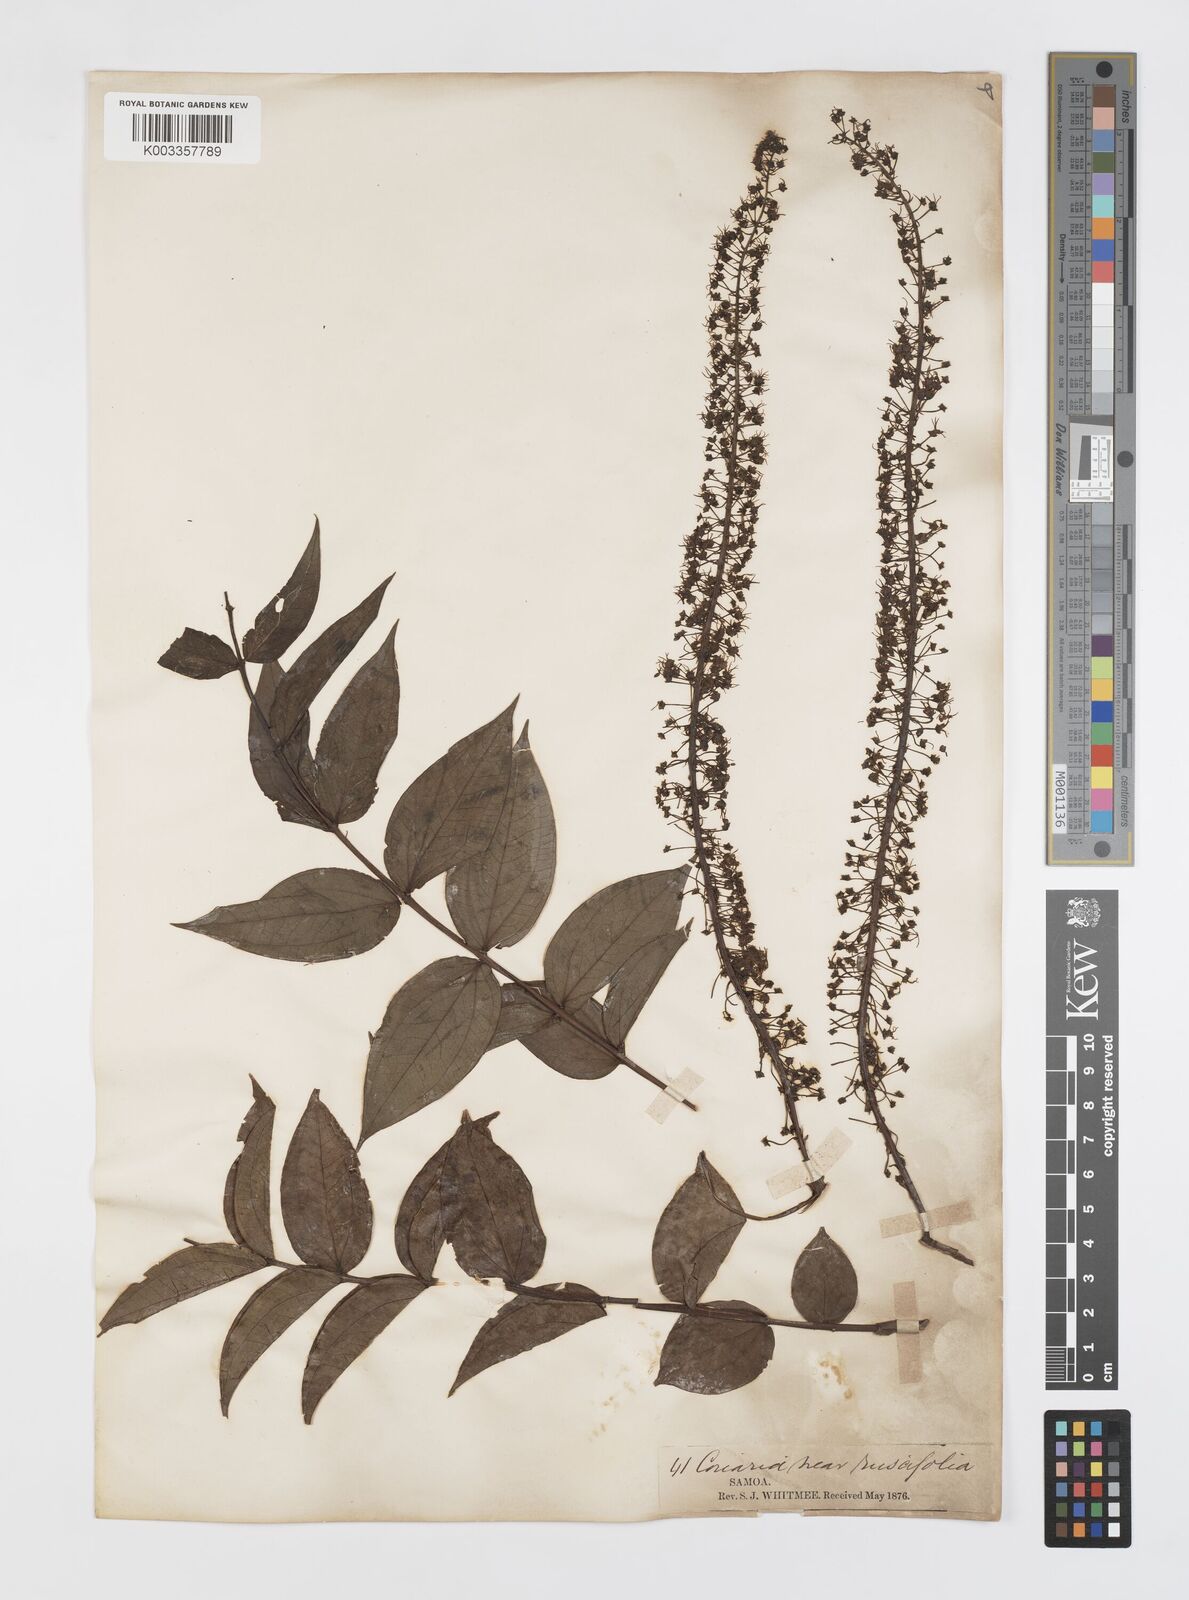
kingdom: Plantae
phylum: Tracheophyta
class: Magnoliopsida
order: Cucurbitales
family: Coriariaceae
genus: Coriaria
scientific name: Coriaria ruscifolia
